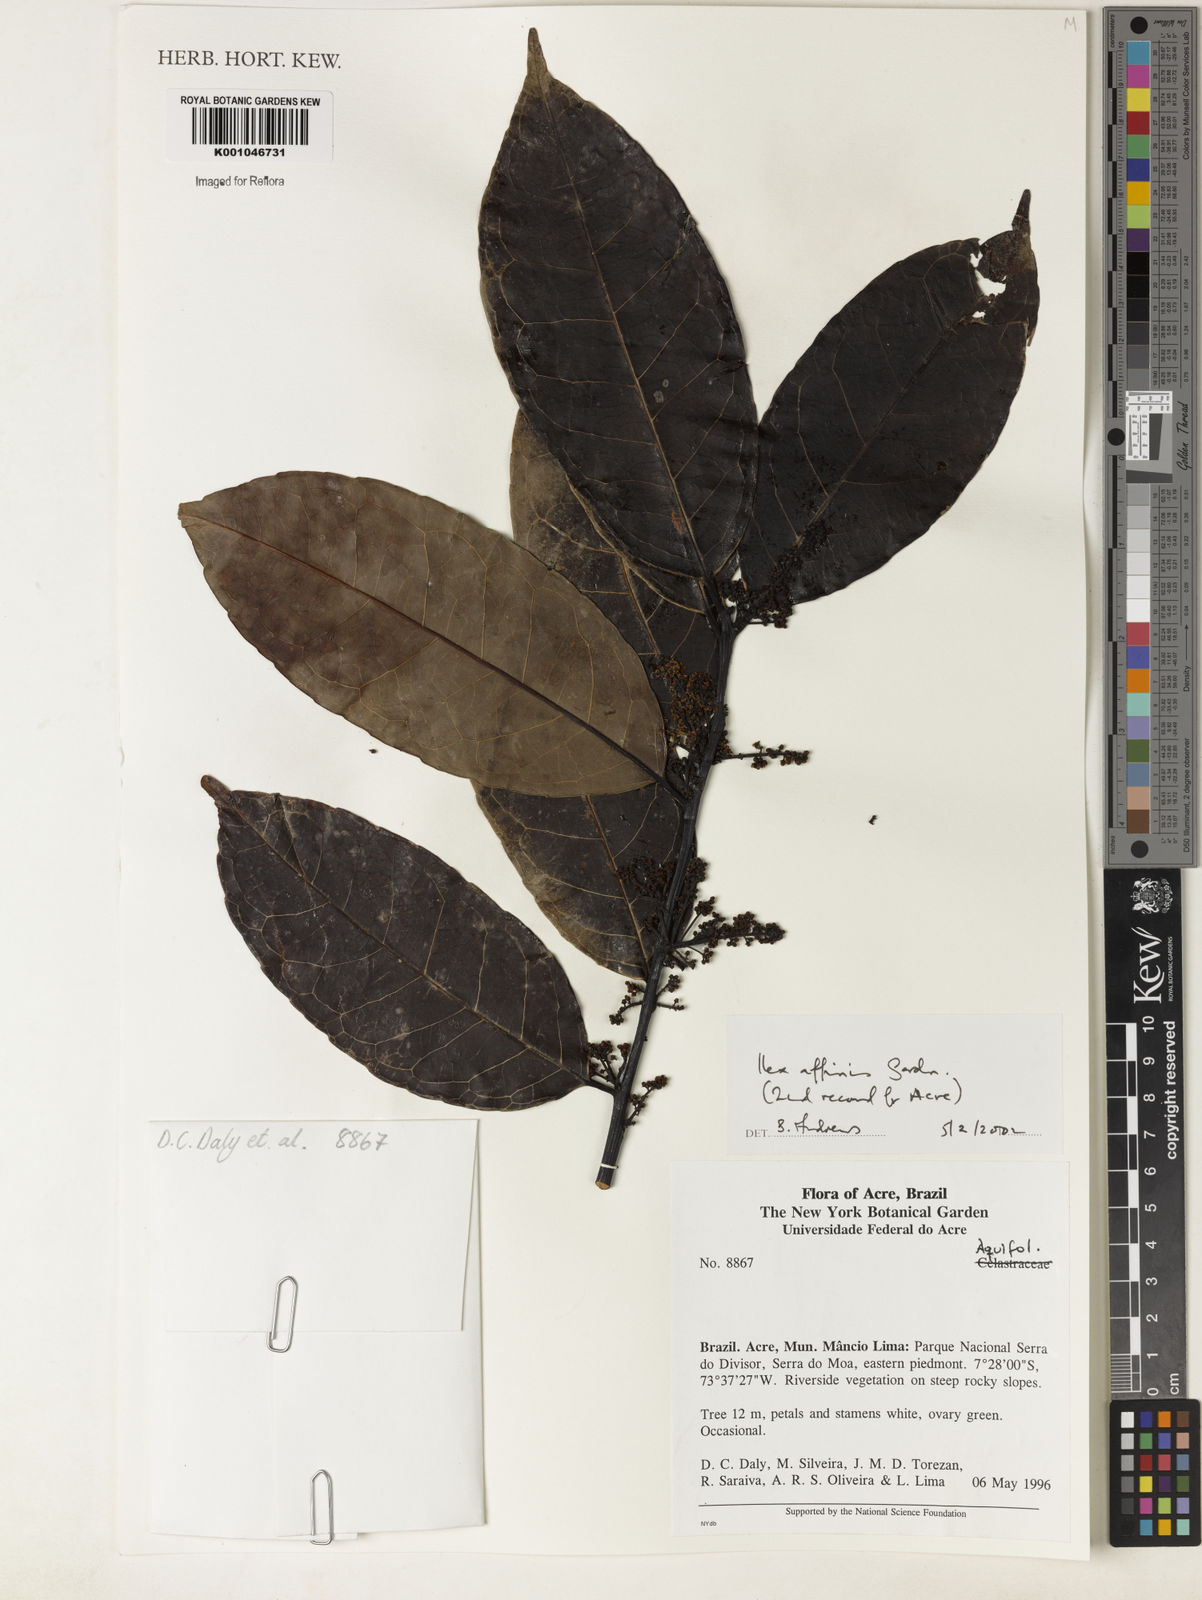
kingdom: Plantae
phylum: Tracheophyta
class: Magnoliopsida
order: Aquifoliales
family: Aquifoliaceae
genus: Ilex
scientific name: Ilex affinis
